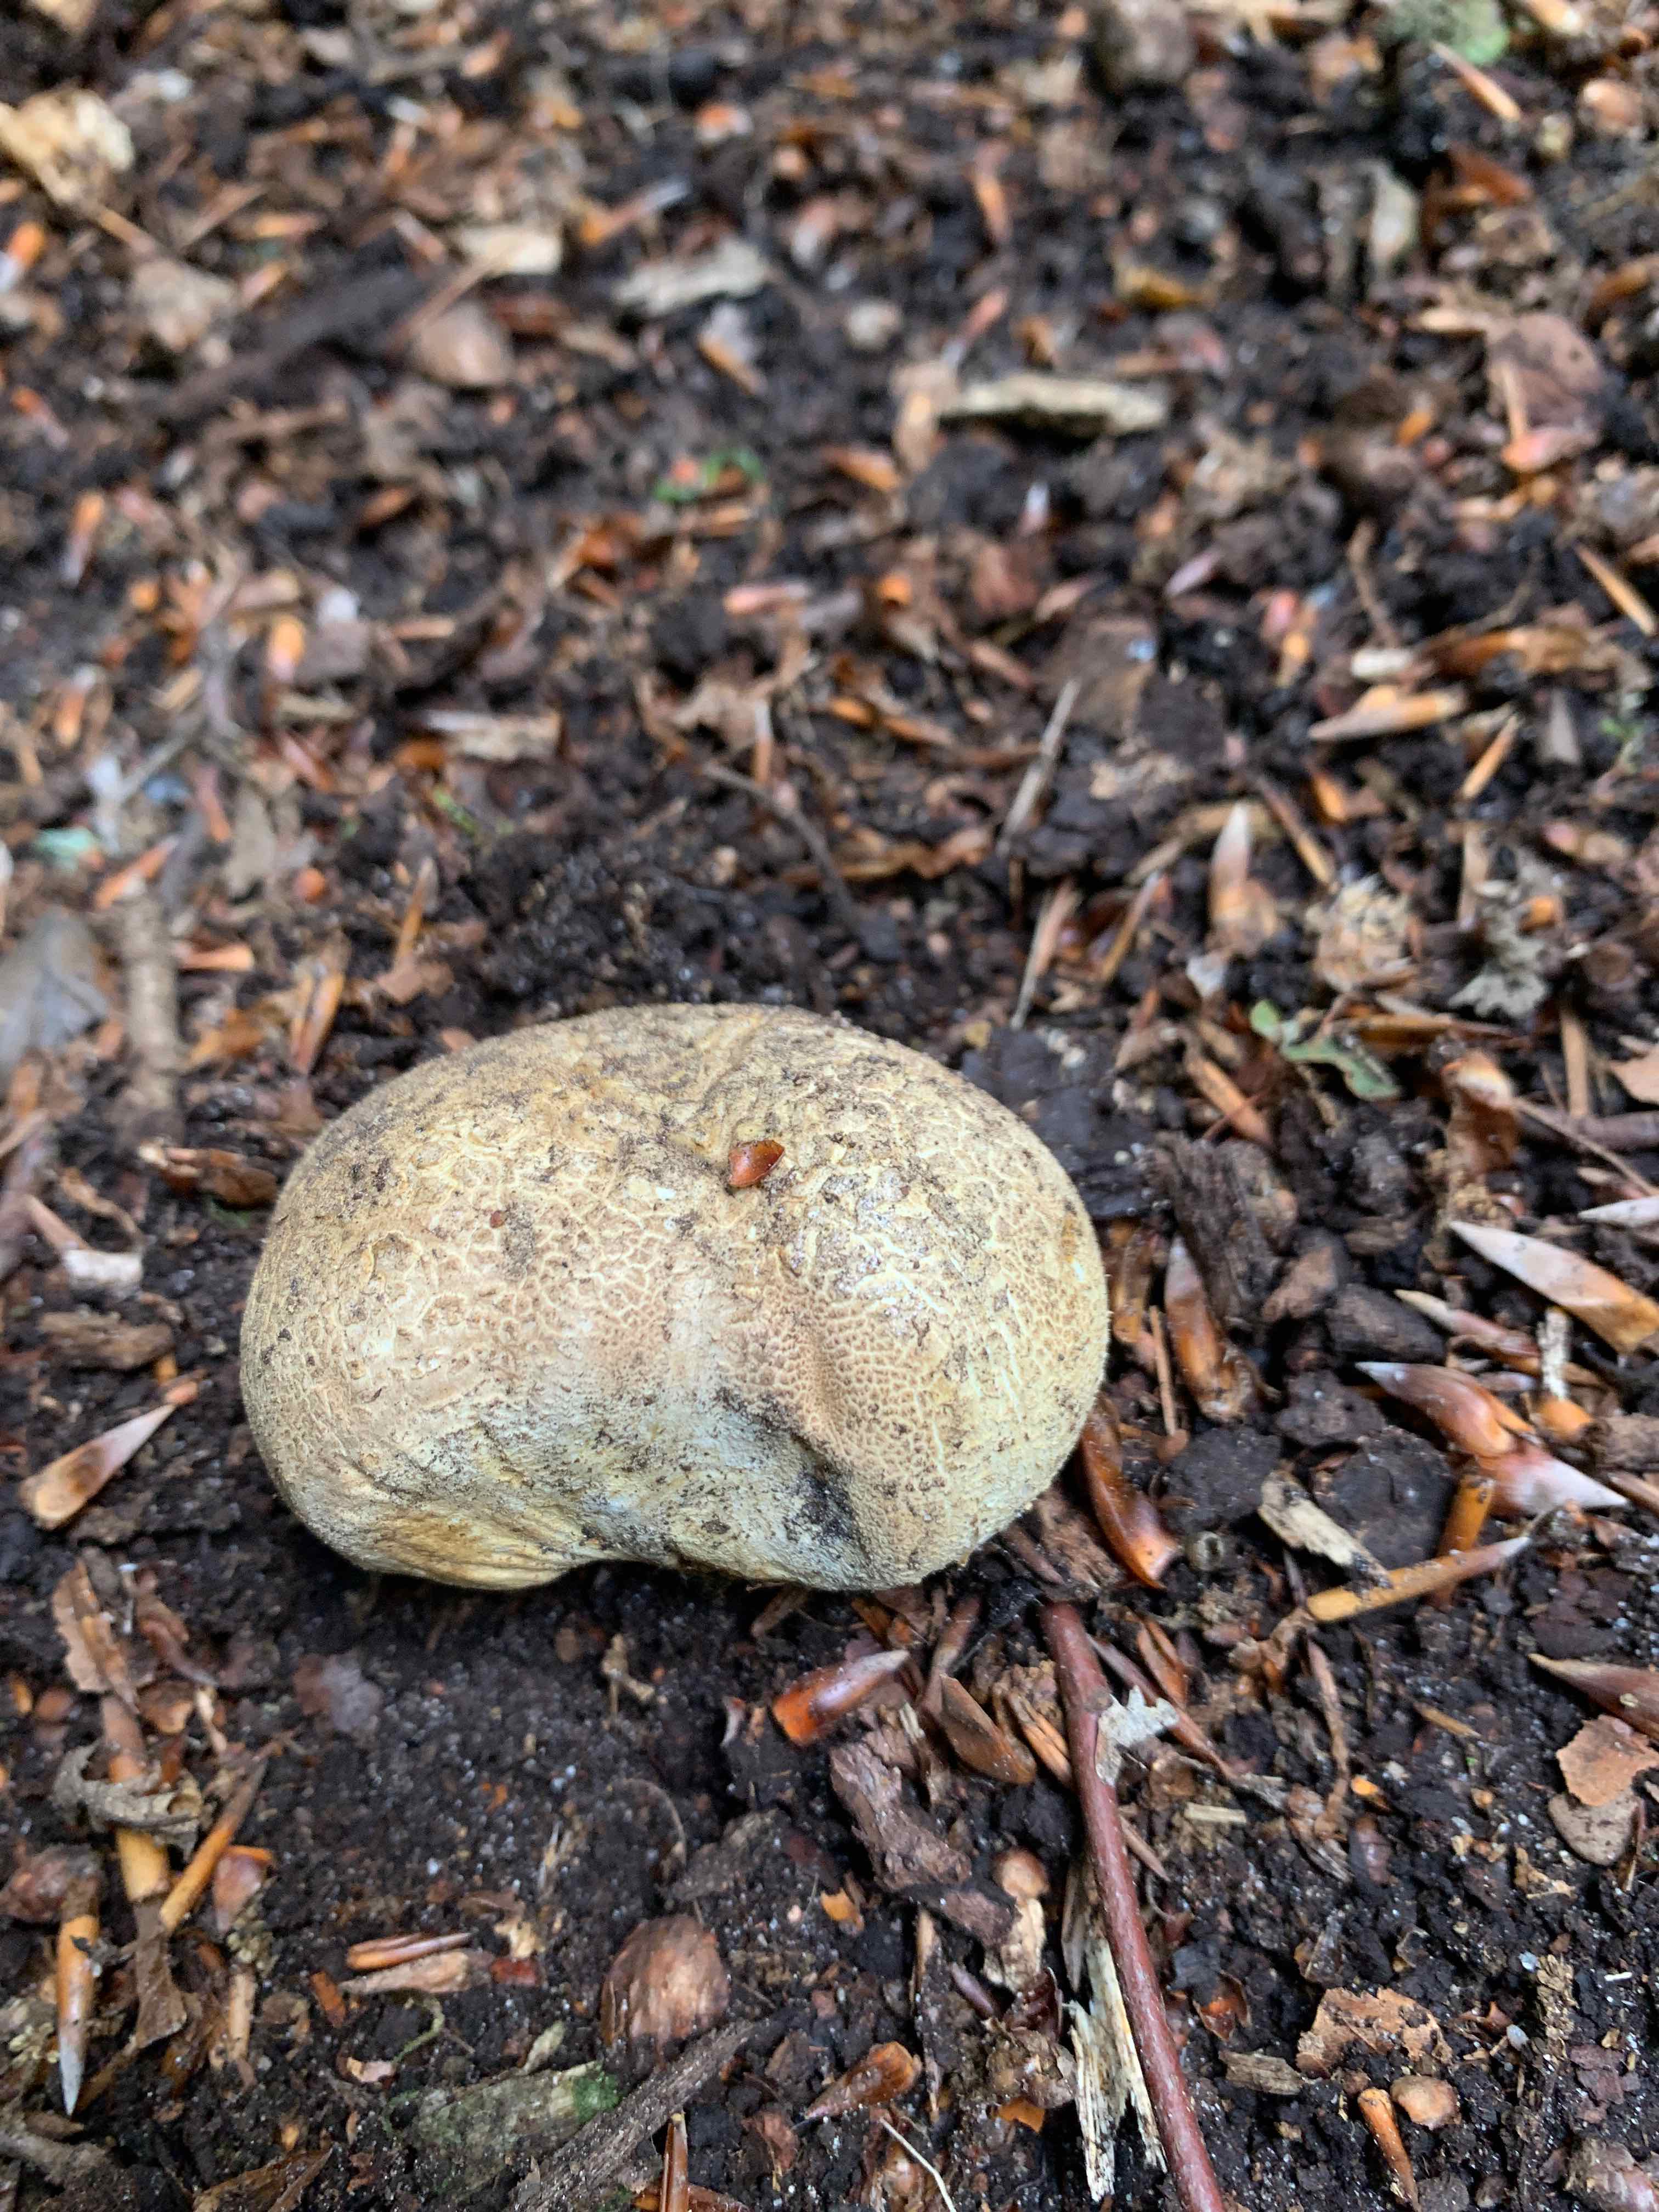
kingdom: Fungi
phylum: Basidiomycota
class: Agaricomycetes
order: Boletales
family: Sclerodermataceae
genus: Scleroderma
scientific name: Scleroderma citrinum
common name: almindelig bruskbold
